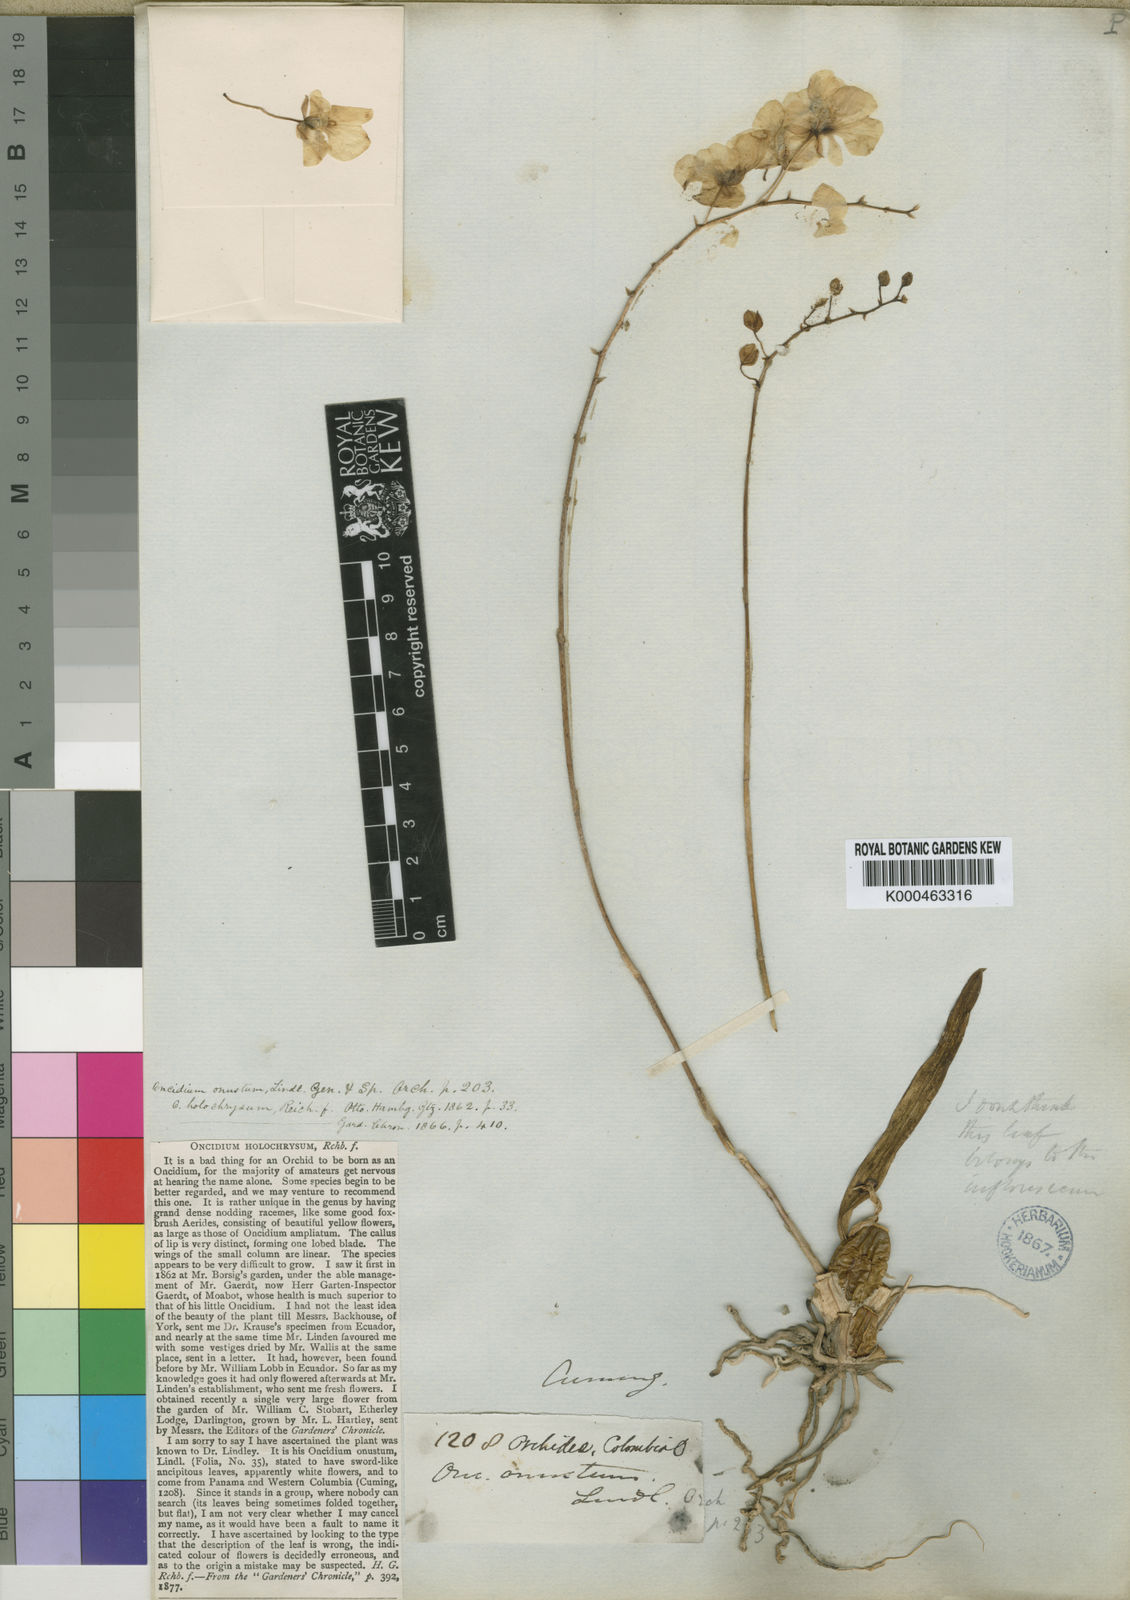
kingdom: Plantae
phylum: Tracheophyta
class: Liliopsida
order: Asparagales
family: Orchidaceae
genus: Zelenkoa
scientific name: Zelenkoa onusta
